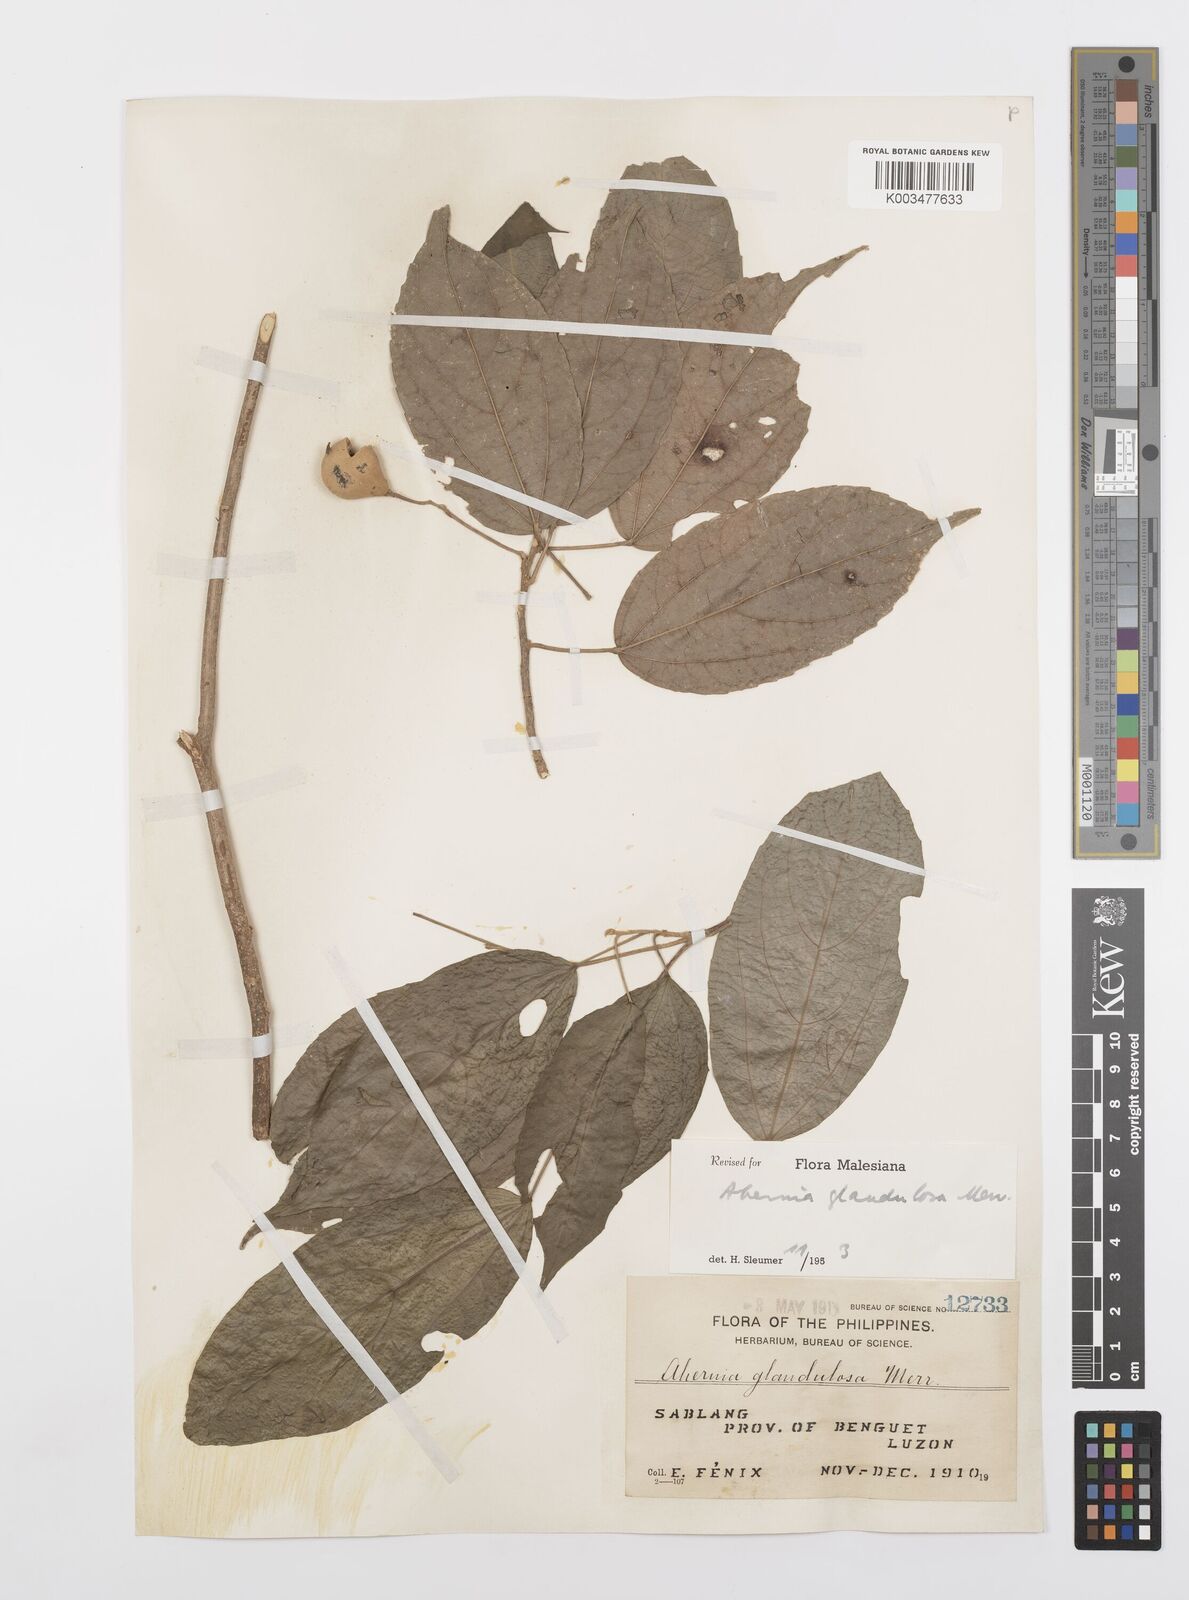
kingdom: Plantae
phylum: Tracheophyta
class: Magnoliopsida
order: Malpighiales
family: Achariaceae
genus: Ahernia
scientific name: Ahernia glandulosa
